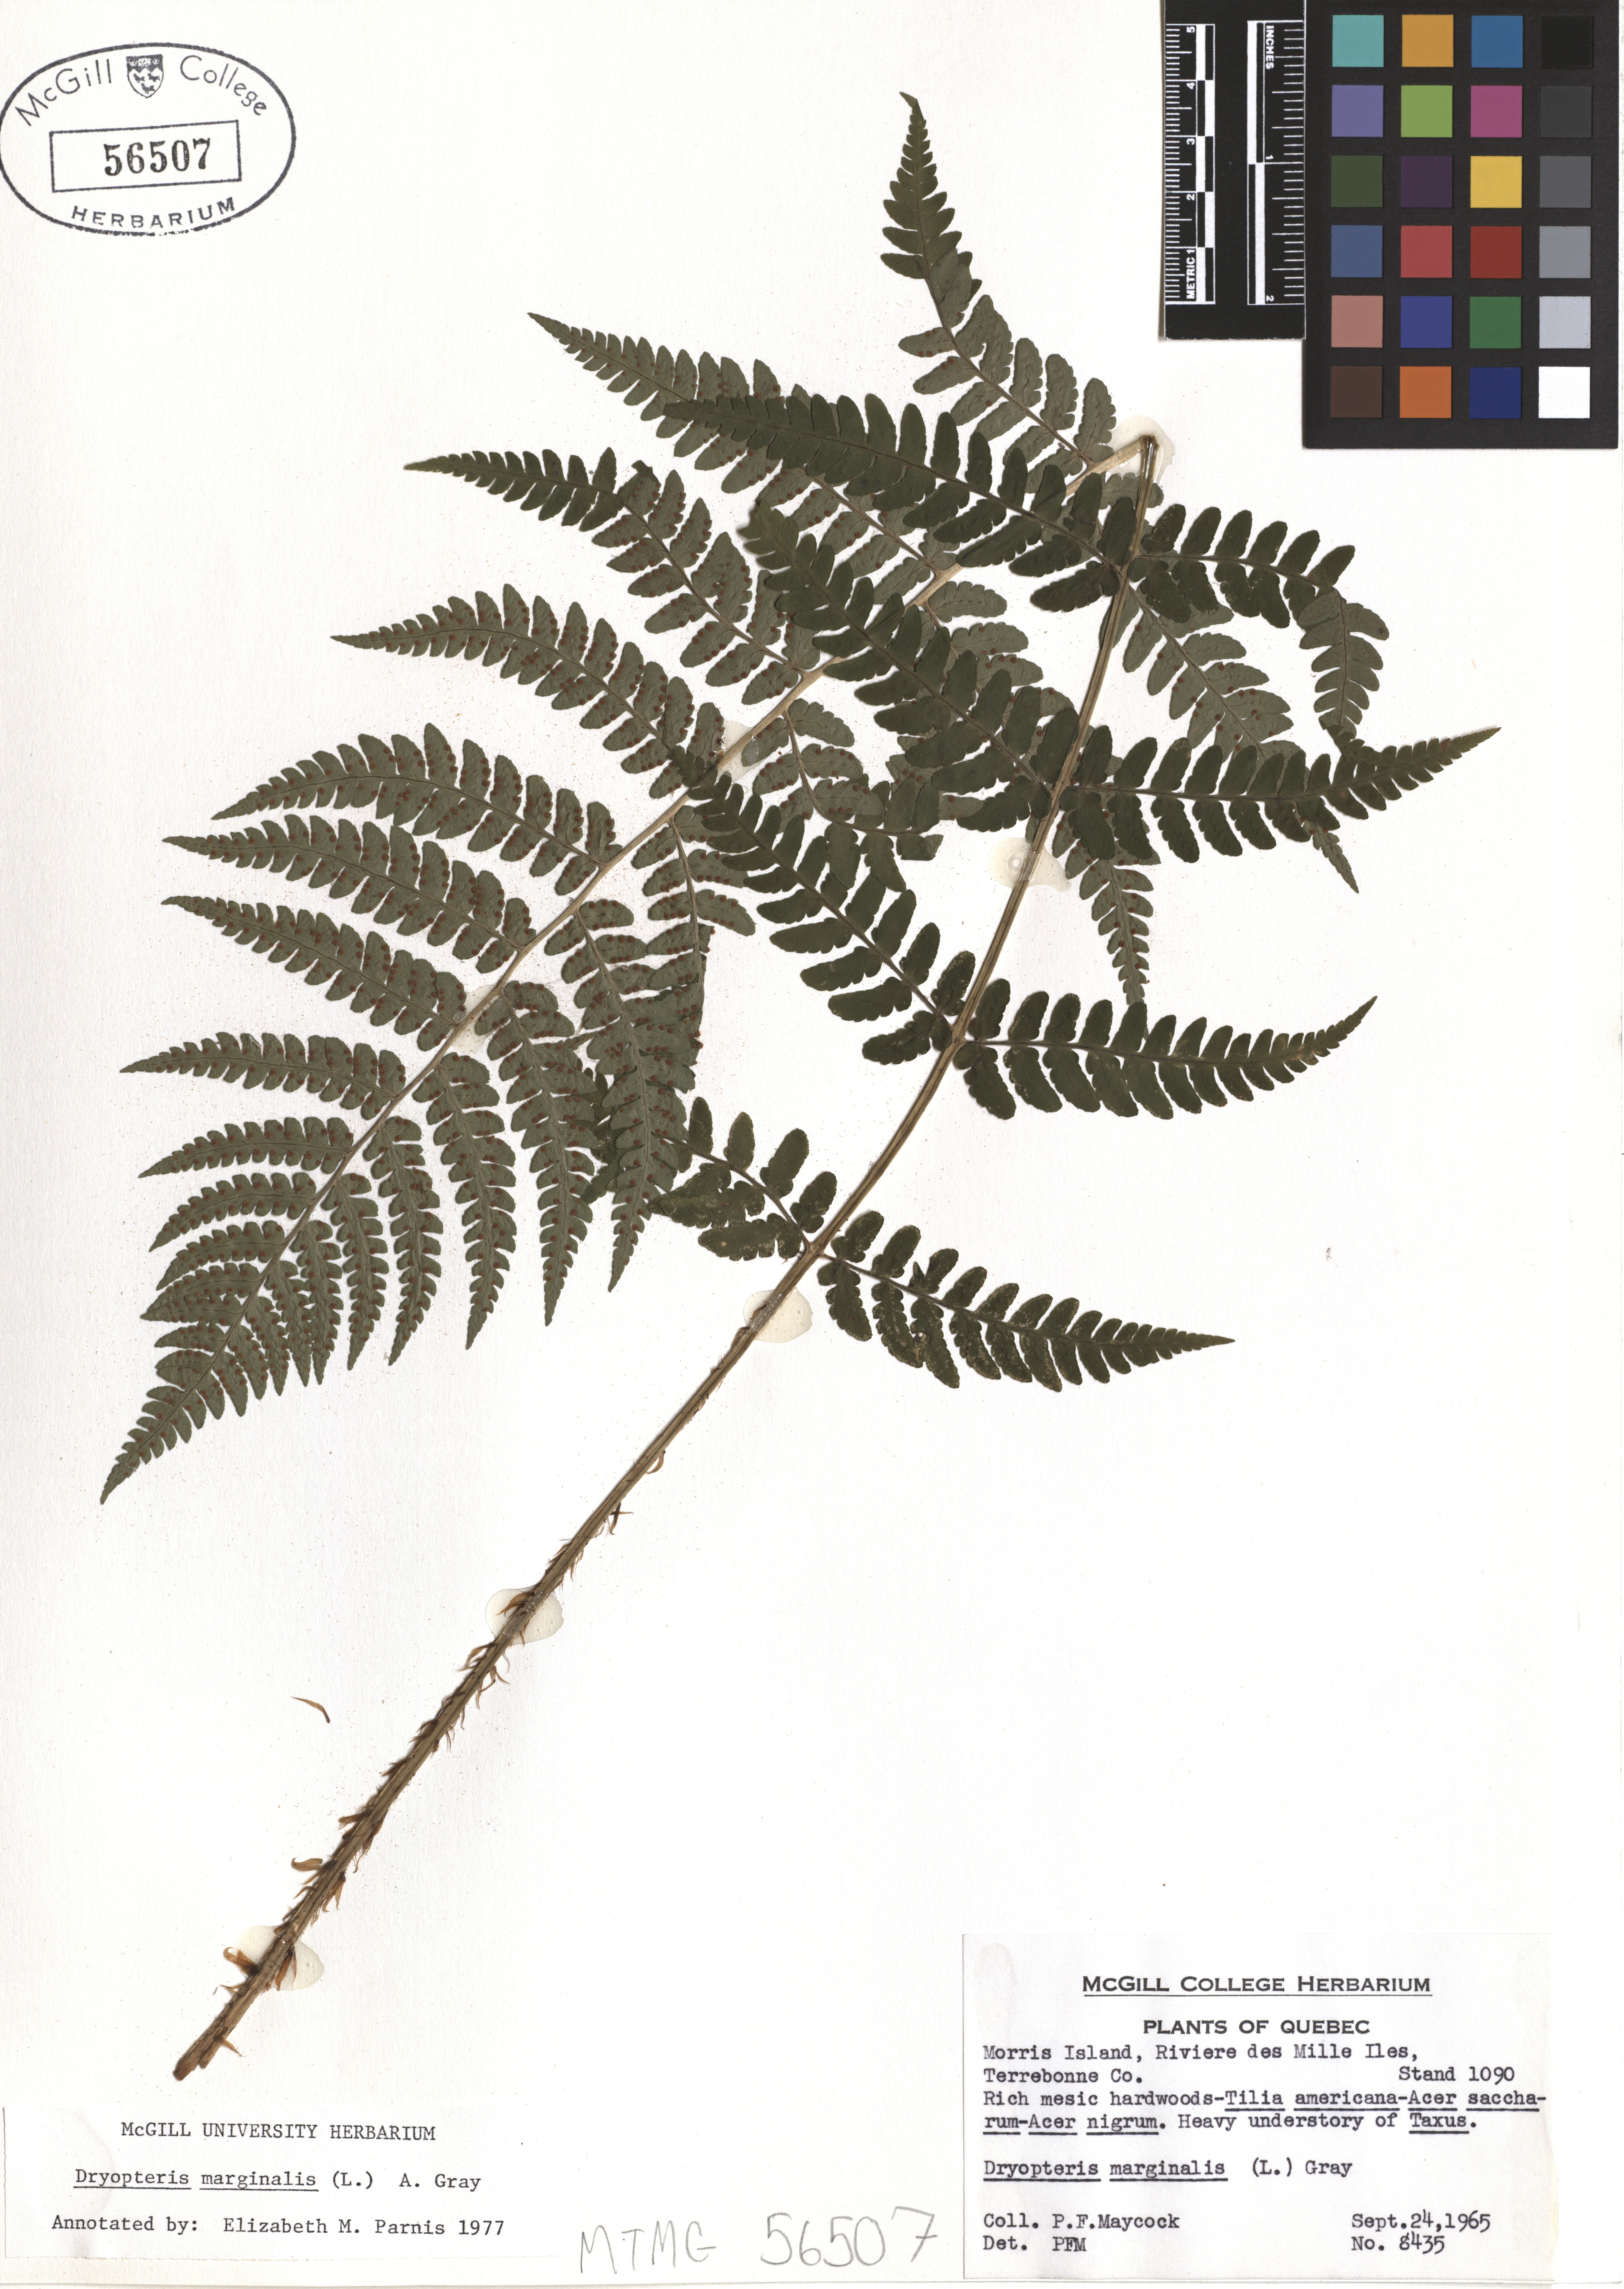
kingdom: Plantae
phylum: Tracheophyta
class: Polypodiopsida
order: Polypodiales
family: Dryopteridaceae
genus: Dryopteris
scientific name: Dryopteris marginalis
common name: Marginal wood fern
